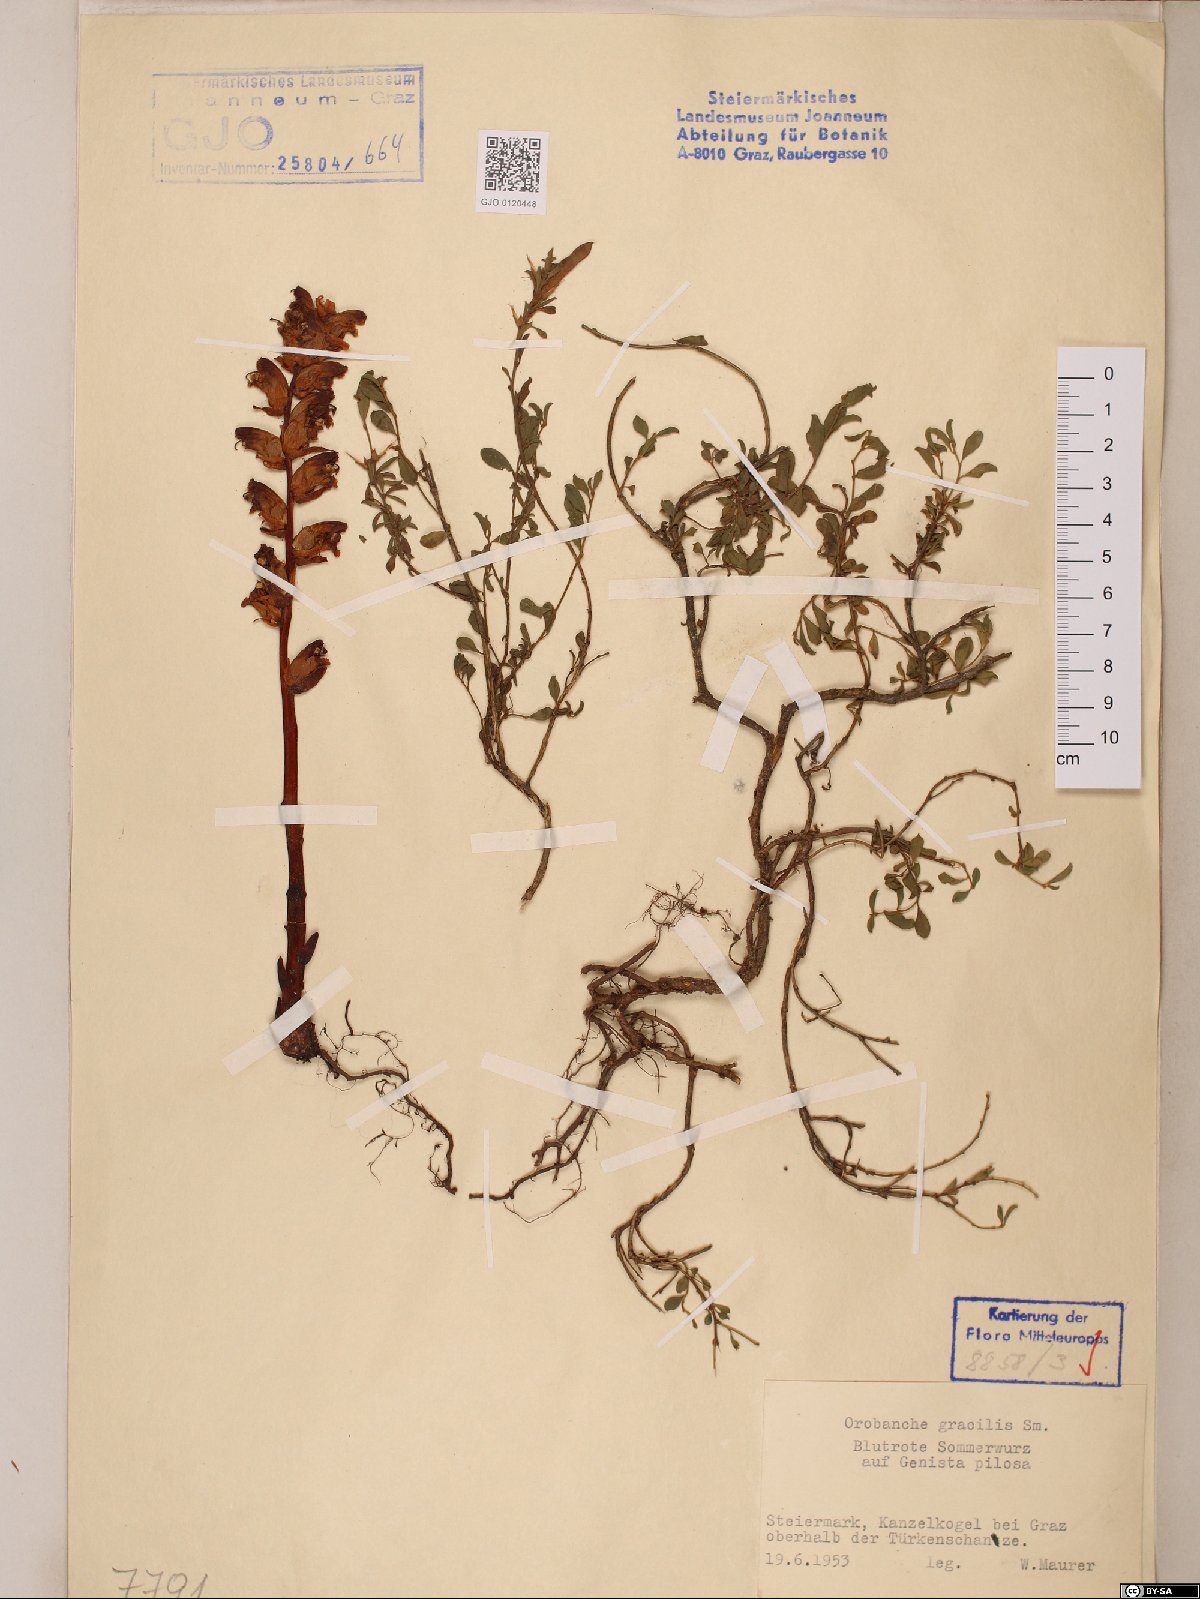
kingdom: Plantae
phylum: Tracheophyta
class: Magnoliopsida
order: Lamiales
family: Orobanchaceae
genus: Orobanche
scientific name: Orobanche gracilis
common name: Slender broomrape
